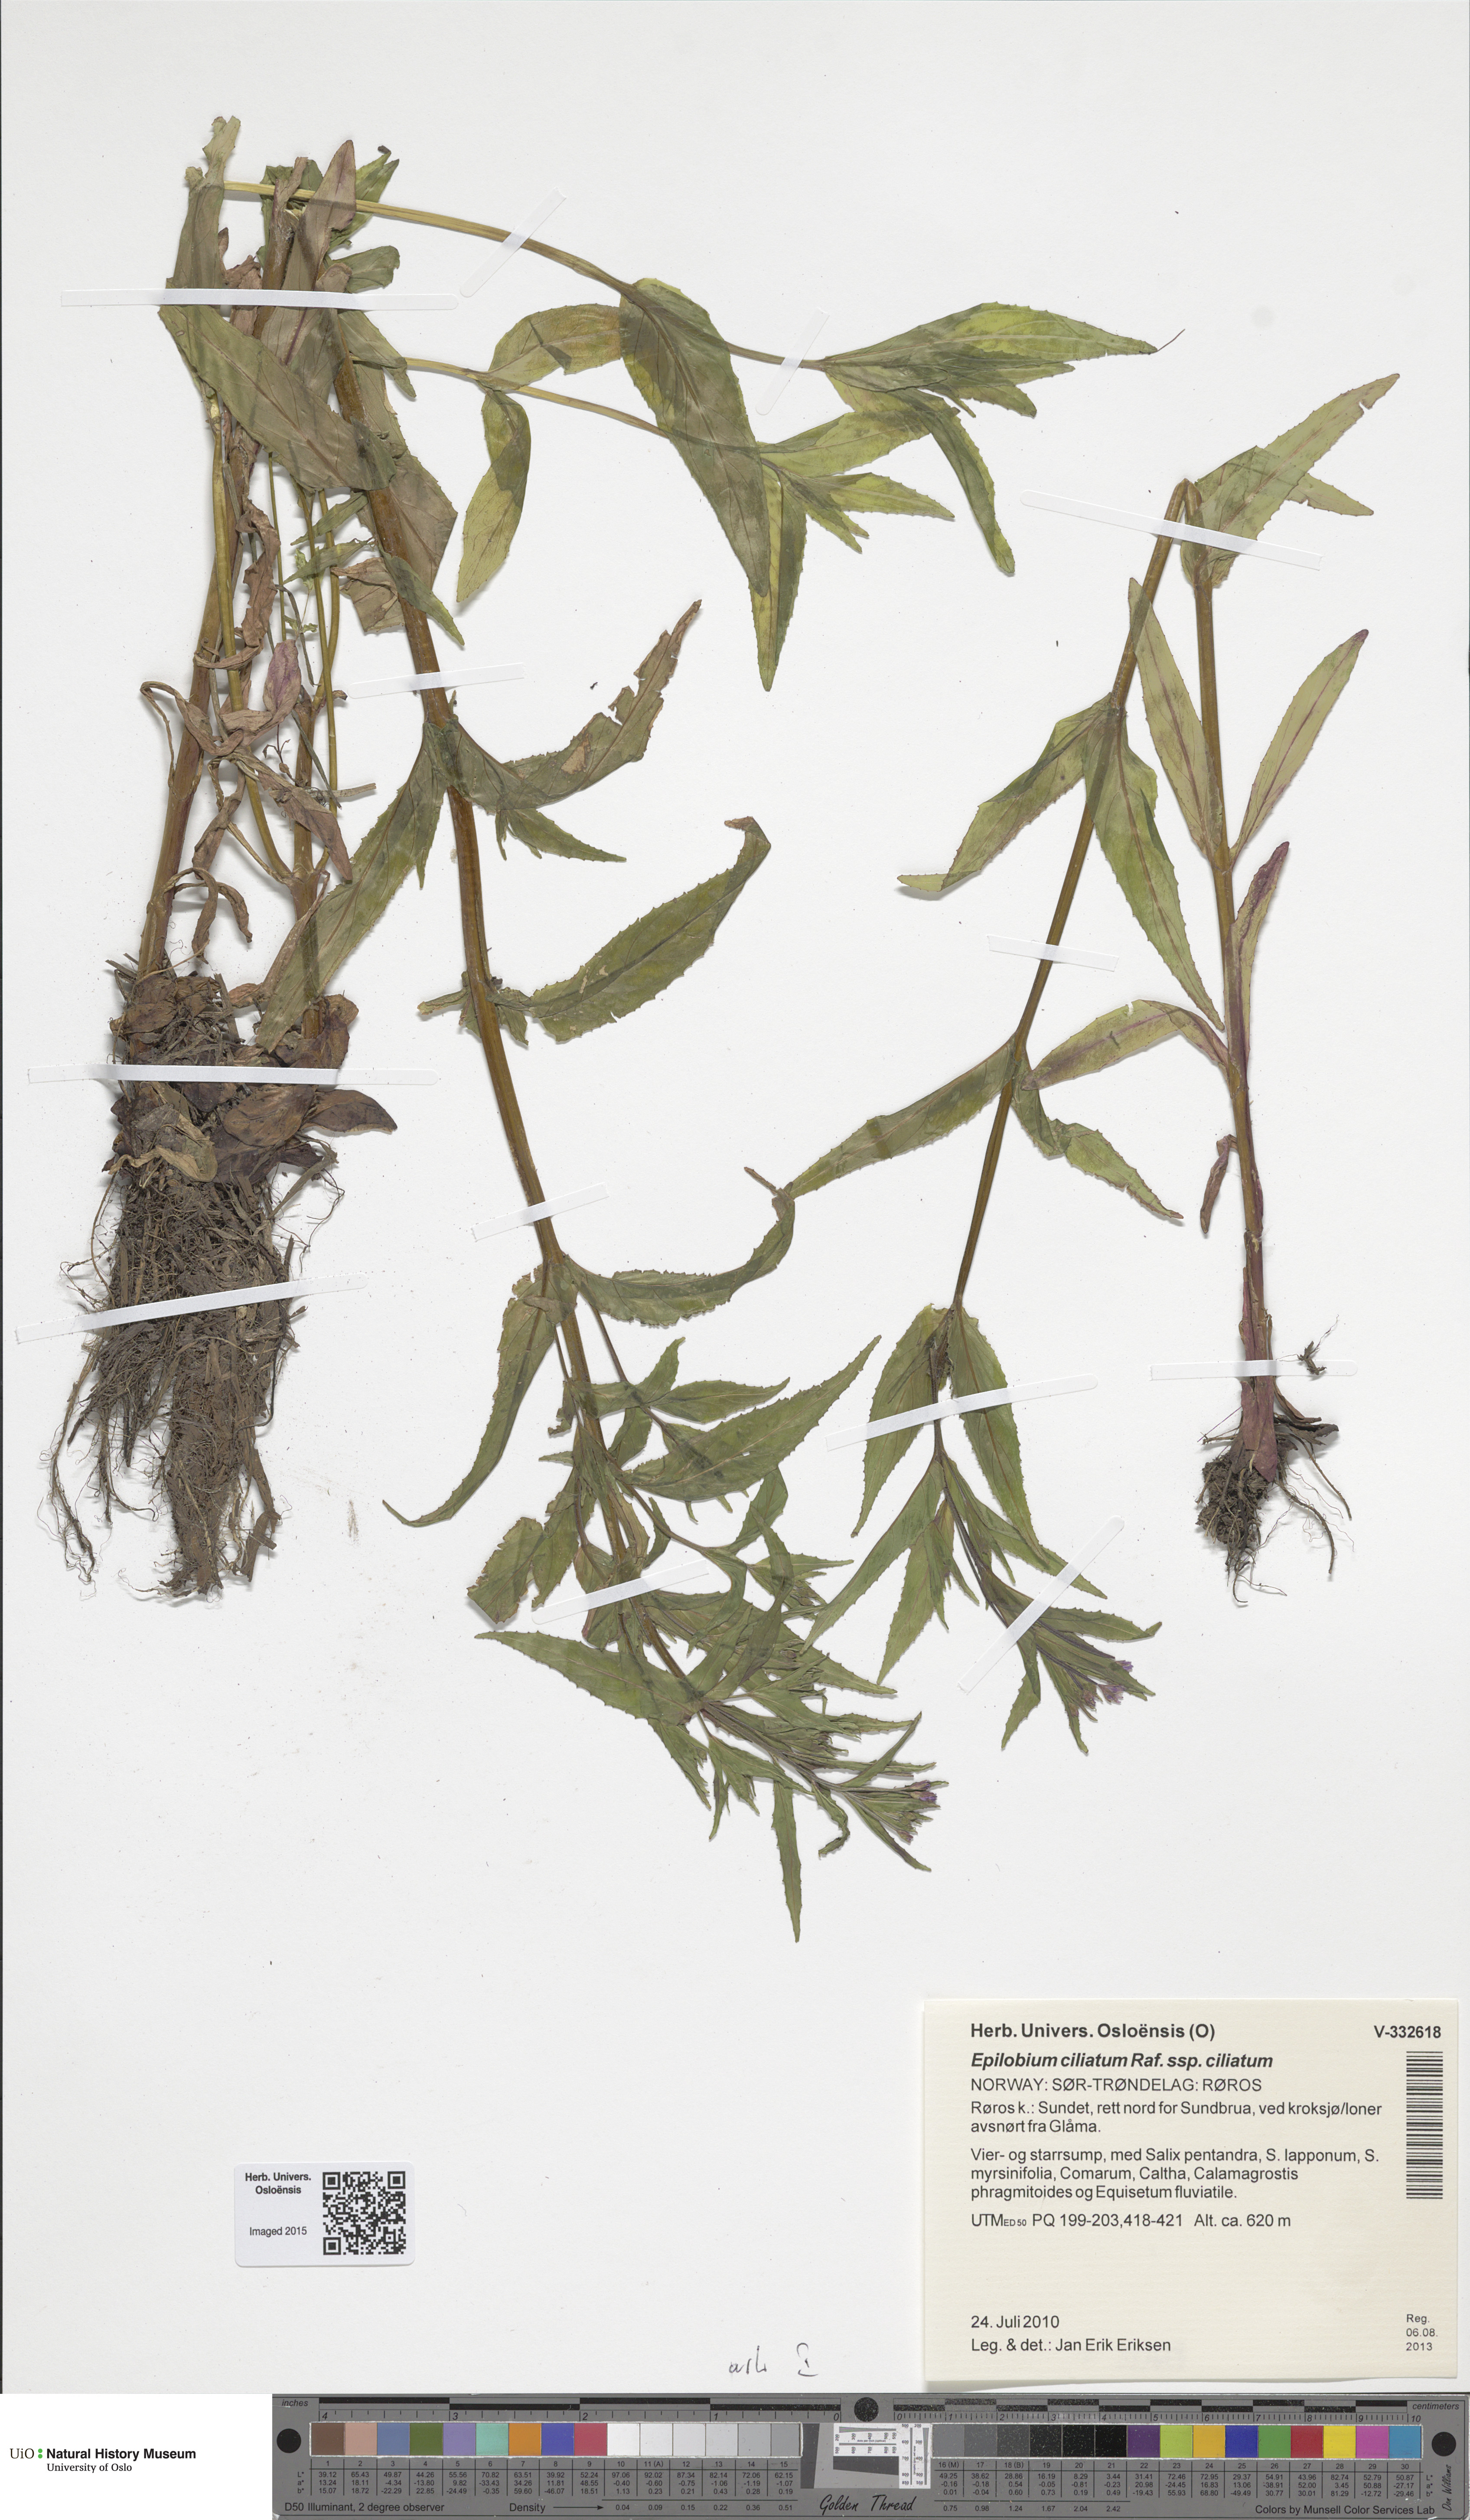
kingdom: Plantae
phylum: Tracheophyta
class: Magnoliopsida
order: Myrtales
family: Onagraceae
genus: Epilobium
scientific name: Epilobium ciliatum
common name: American willowherb
